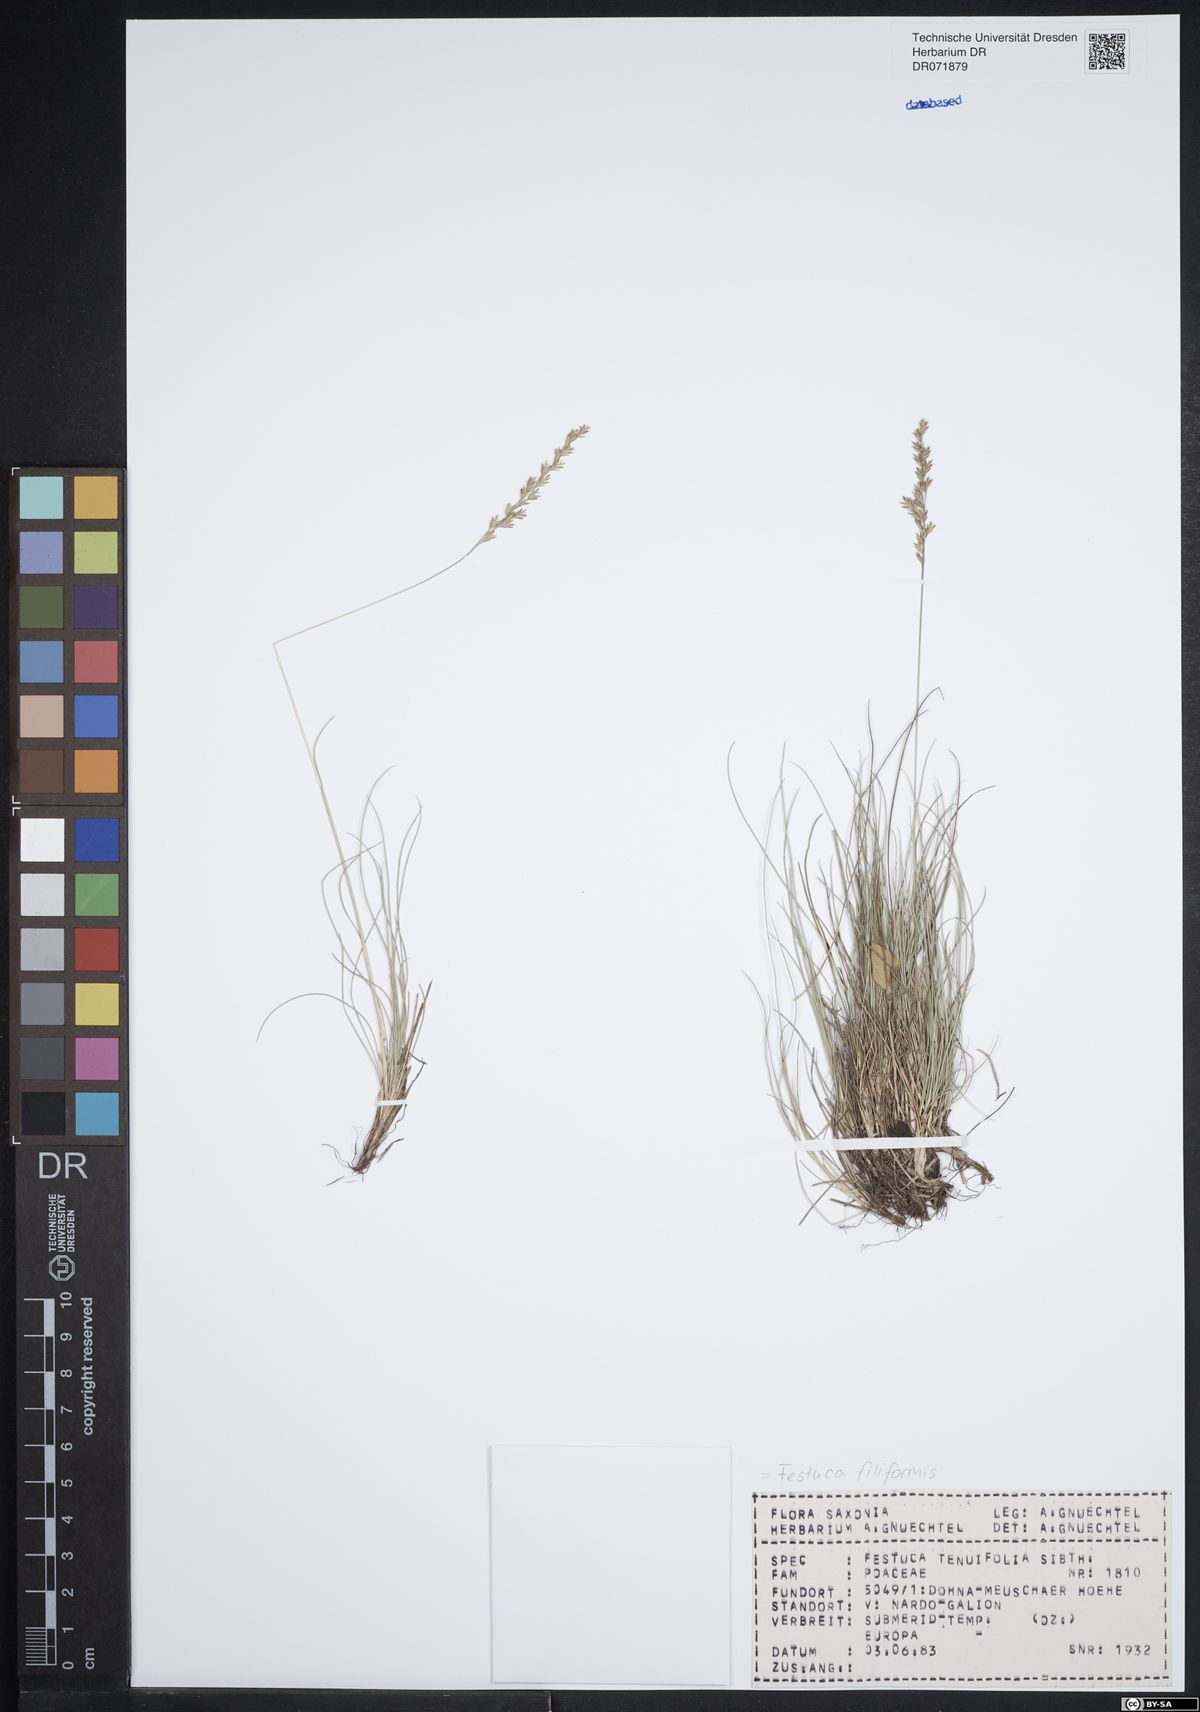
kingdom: Plantae
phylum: Tracheophyta
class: Liliopsida
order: Poales
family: Poaceae
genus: Festuca
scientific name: Festuca filiformis
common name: Fine-leaved sheep's-fescue
